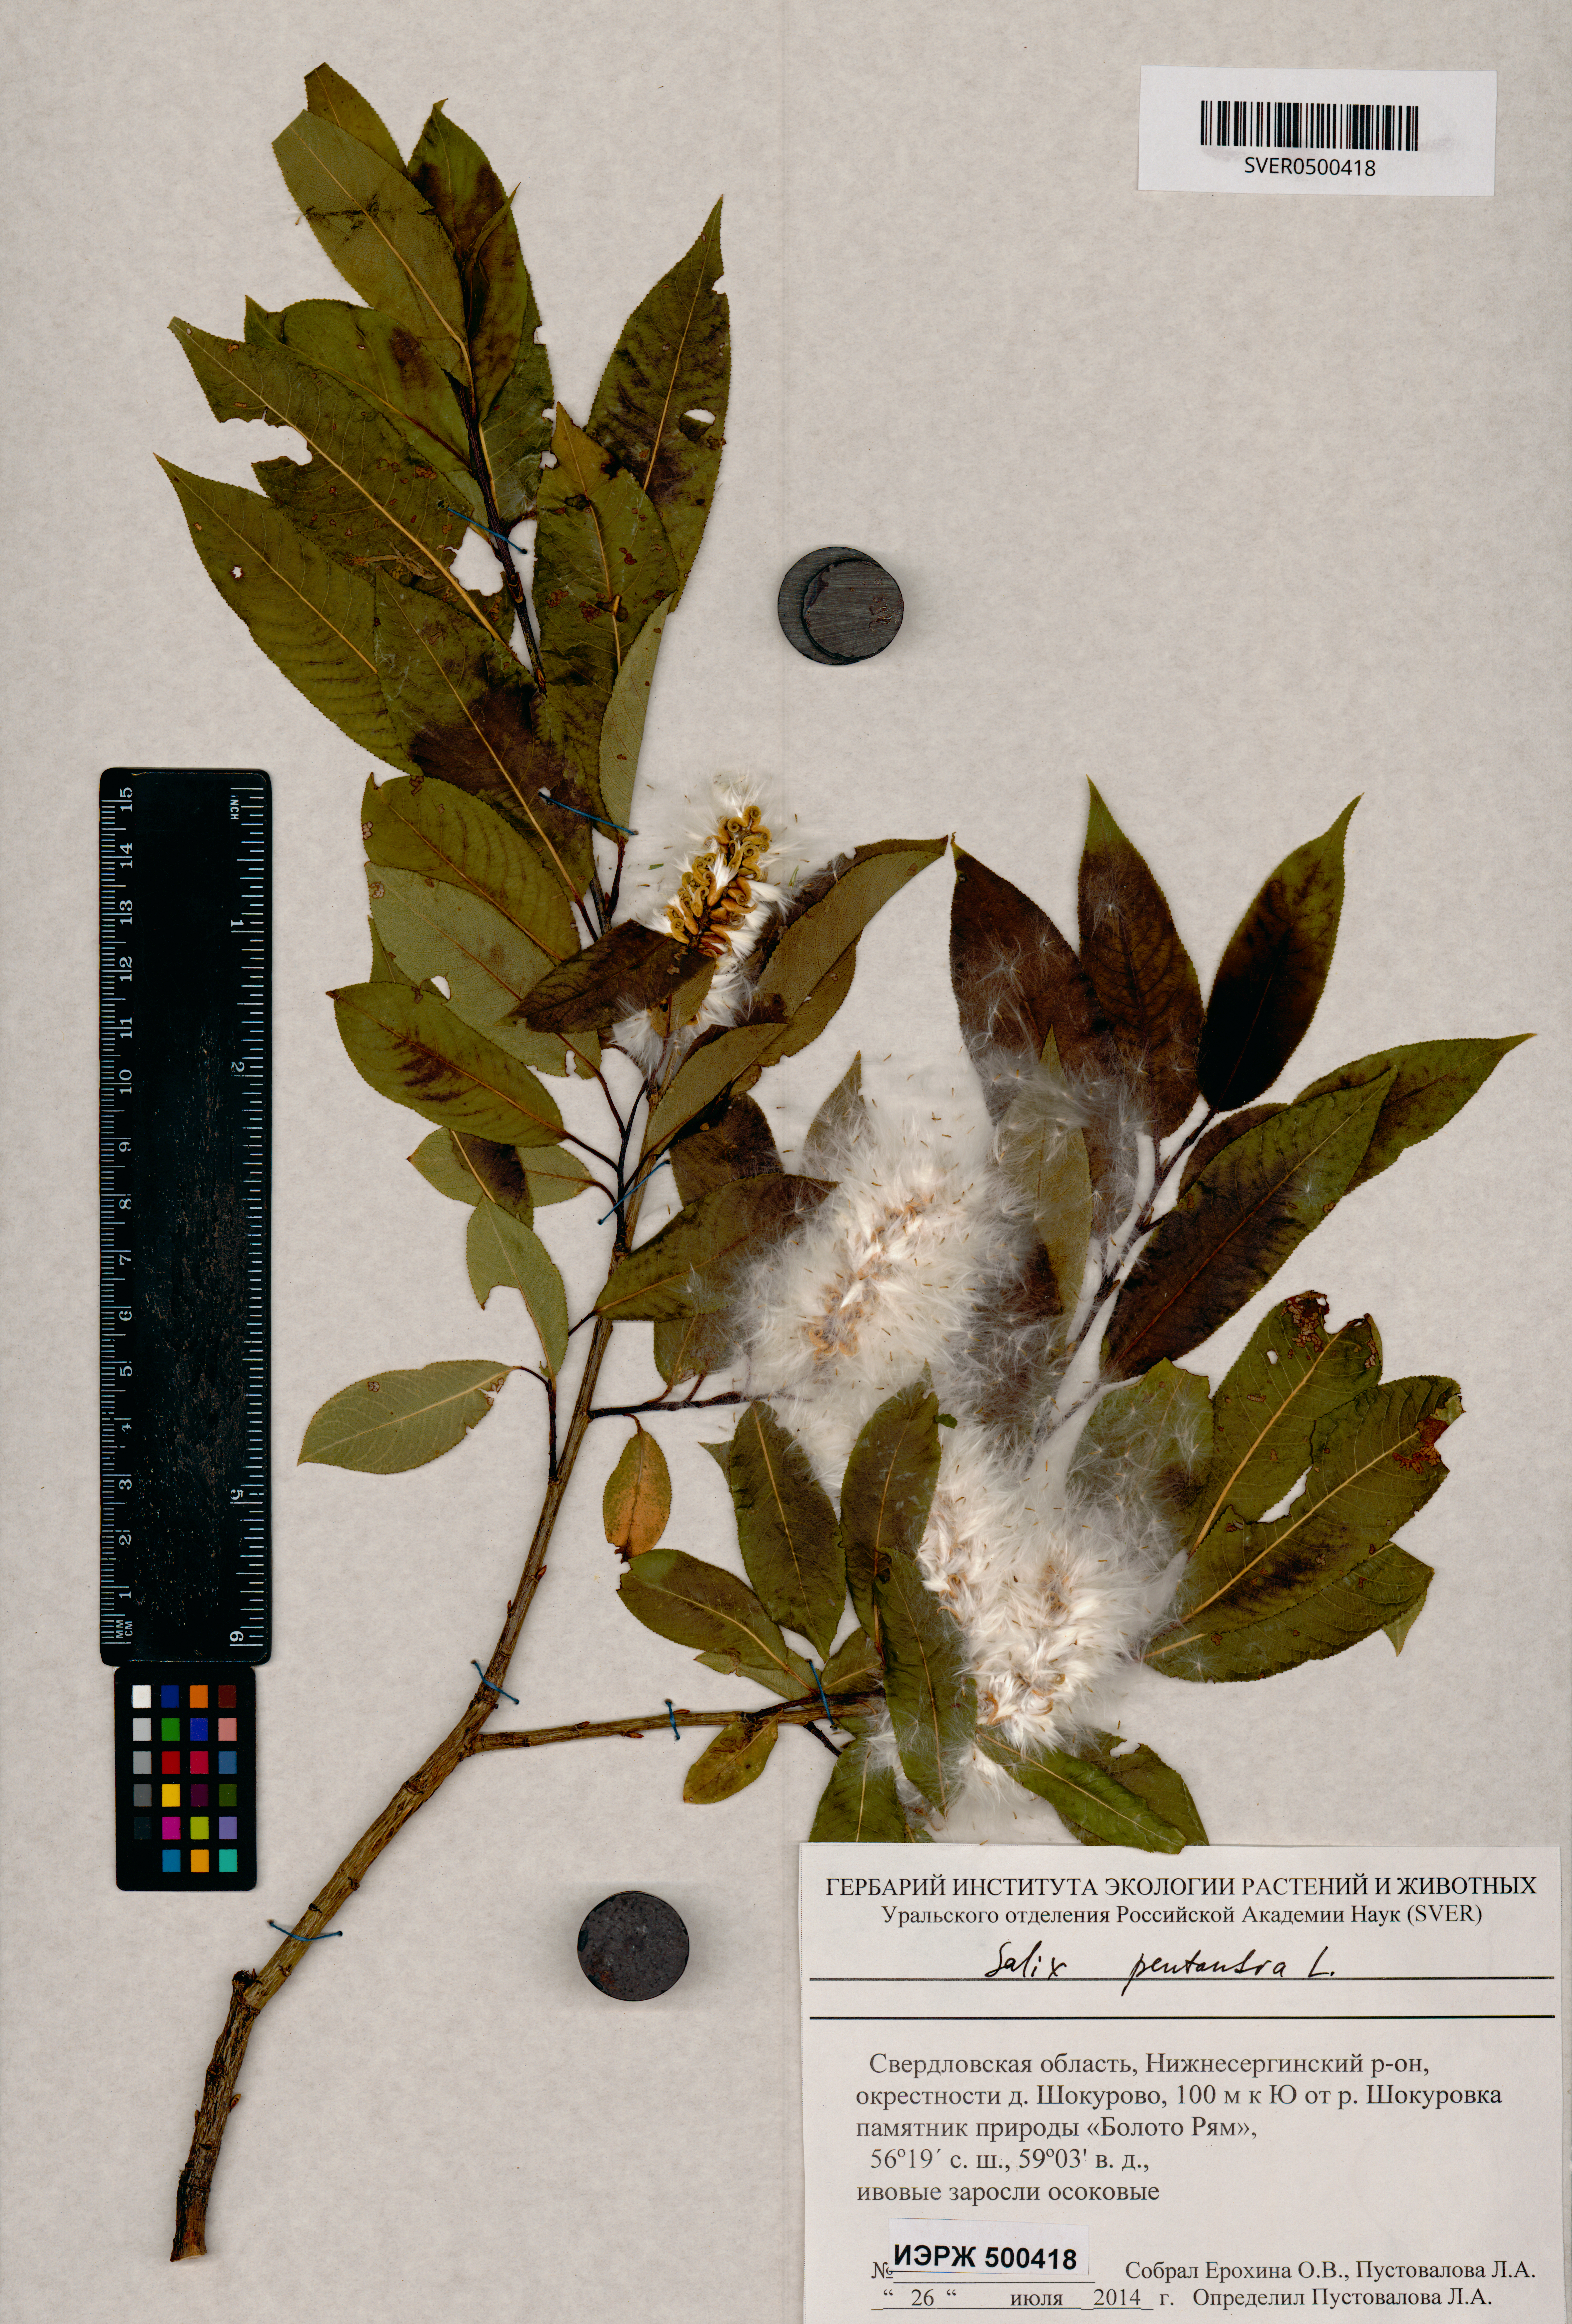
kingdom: Plantae
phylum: Tracheophyta
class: Magnoliopsida
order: Malpighiales
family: Salicaceae
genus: Salix
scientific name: Salix pentandra
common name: Bay willow
